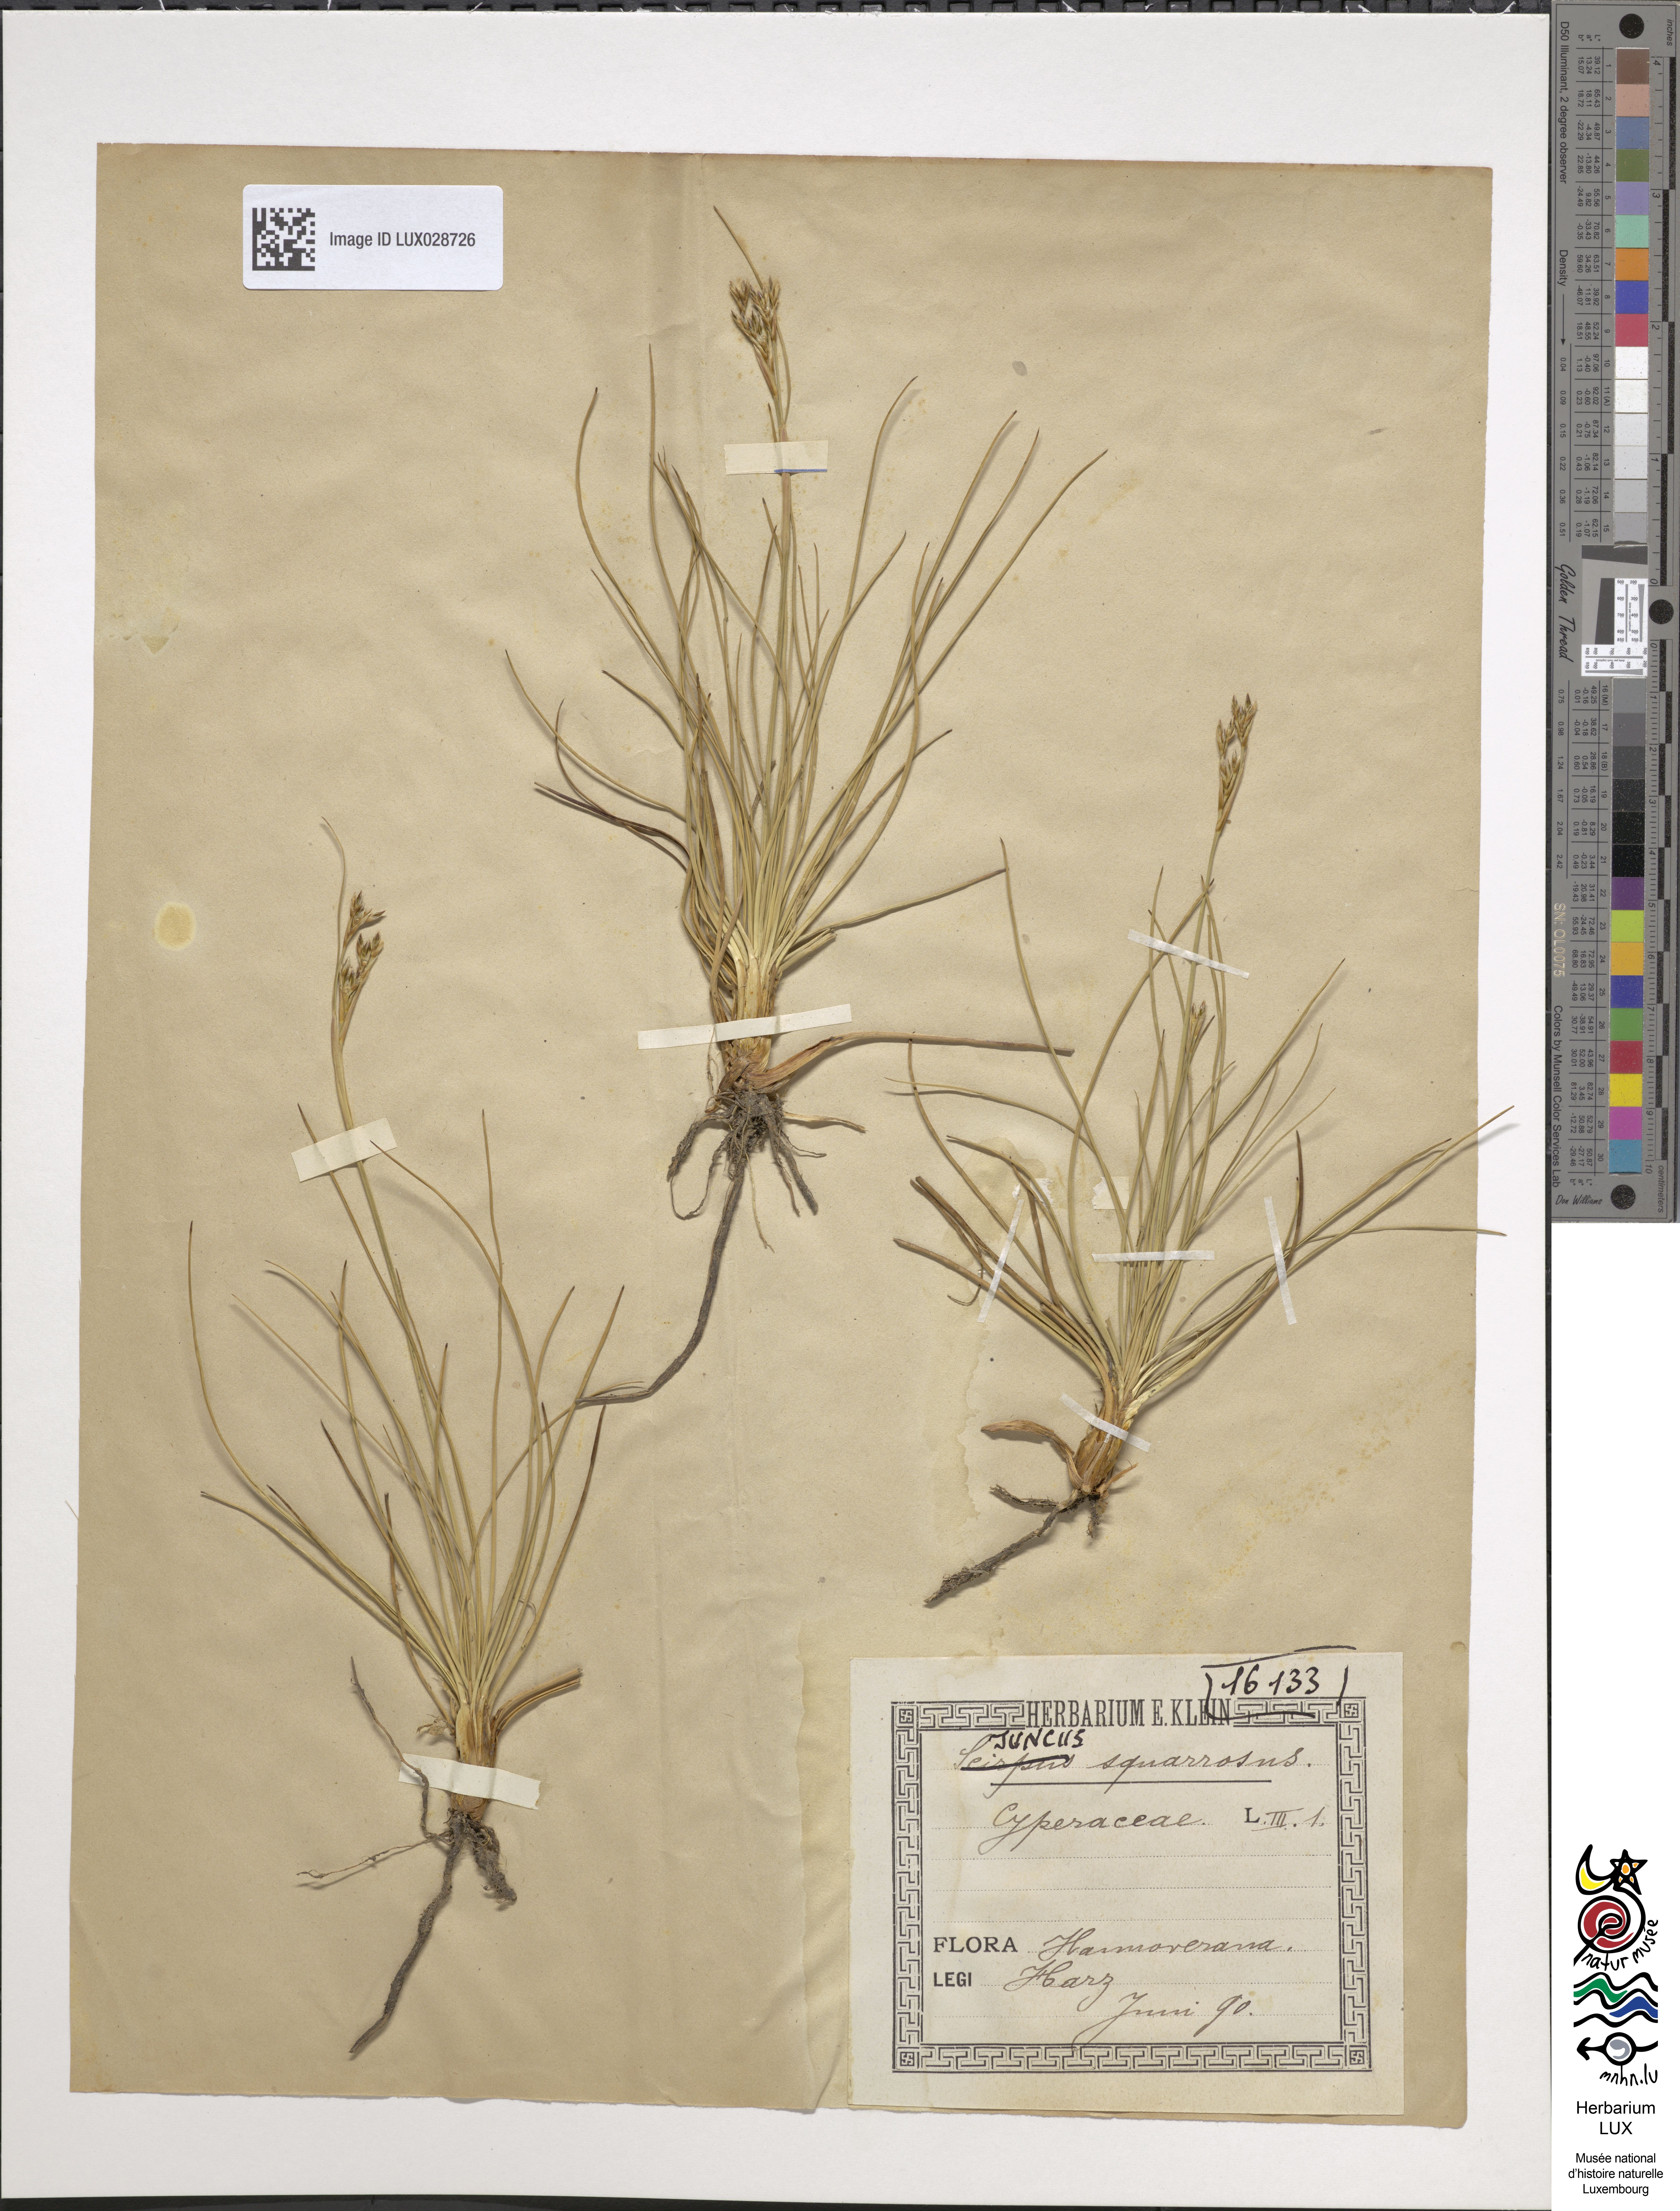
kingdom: Plantae
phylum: Tracheophyta
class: Liliopsida
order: Poales
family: Juncaceae
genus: Juncus
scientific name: Juncus squarrosus
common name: Heath rush
